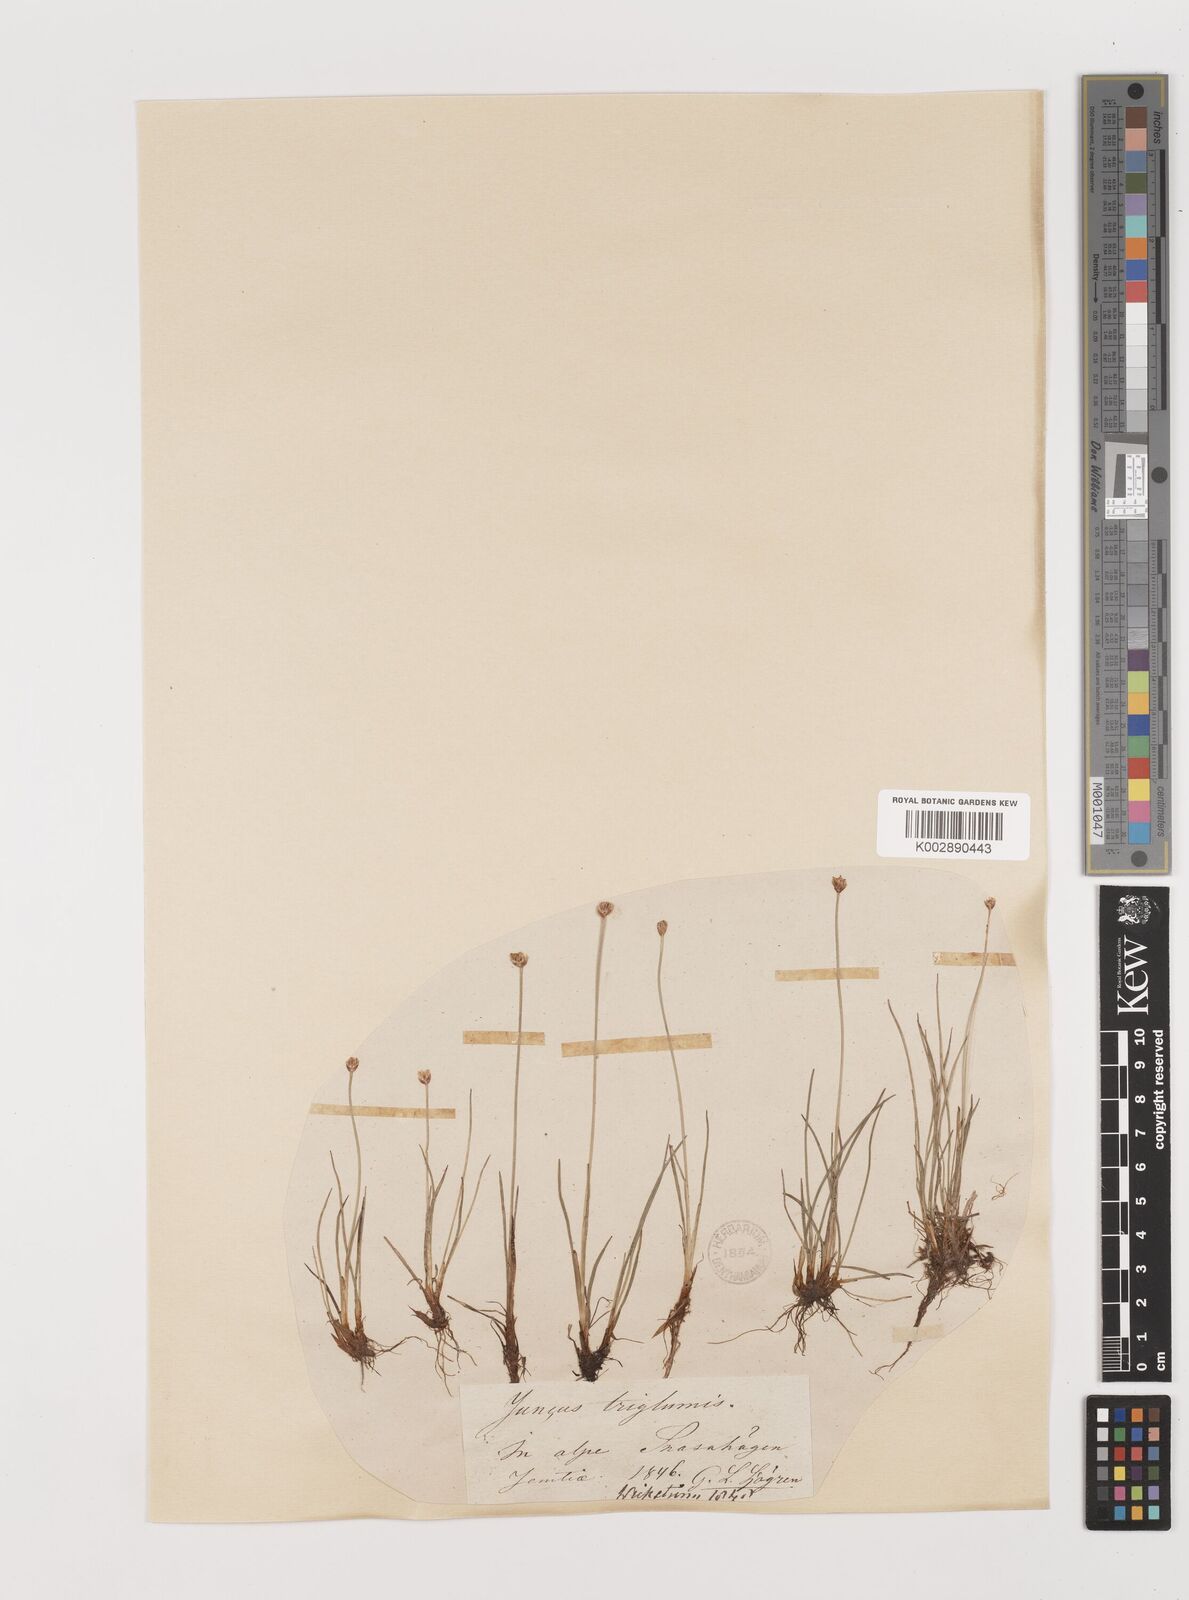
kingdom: Plantae
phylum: Tracheophyta
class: Liliopsida
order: Poales
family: Juncaceae
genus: Juncus
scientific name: Juncus triglumis
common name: Three-flowered rush
